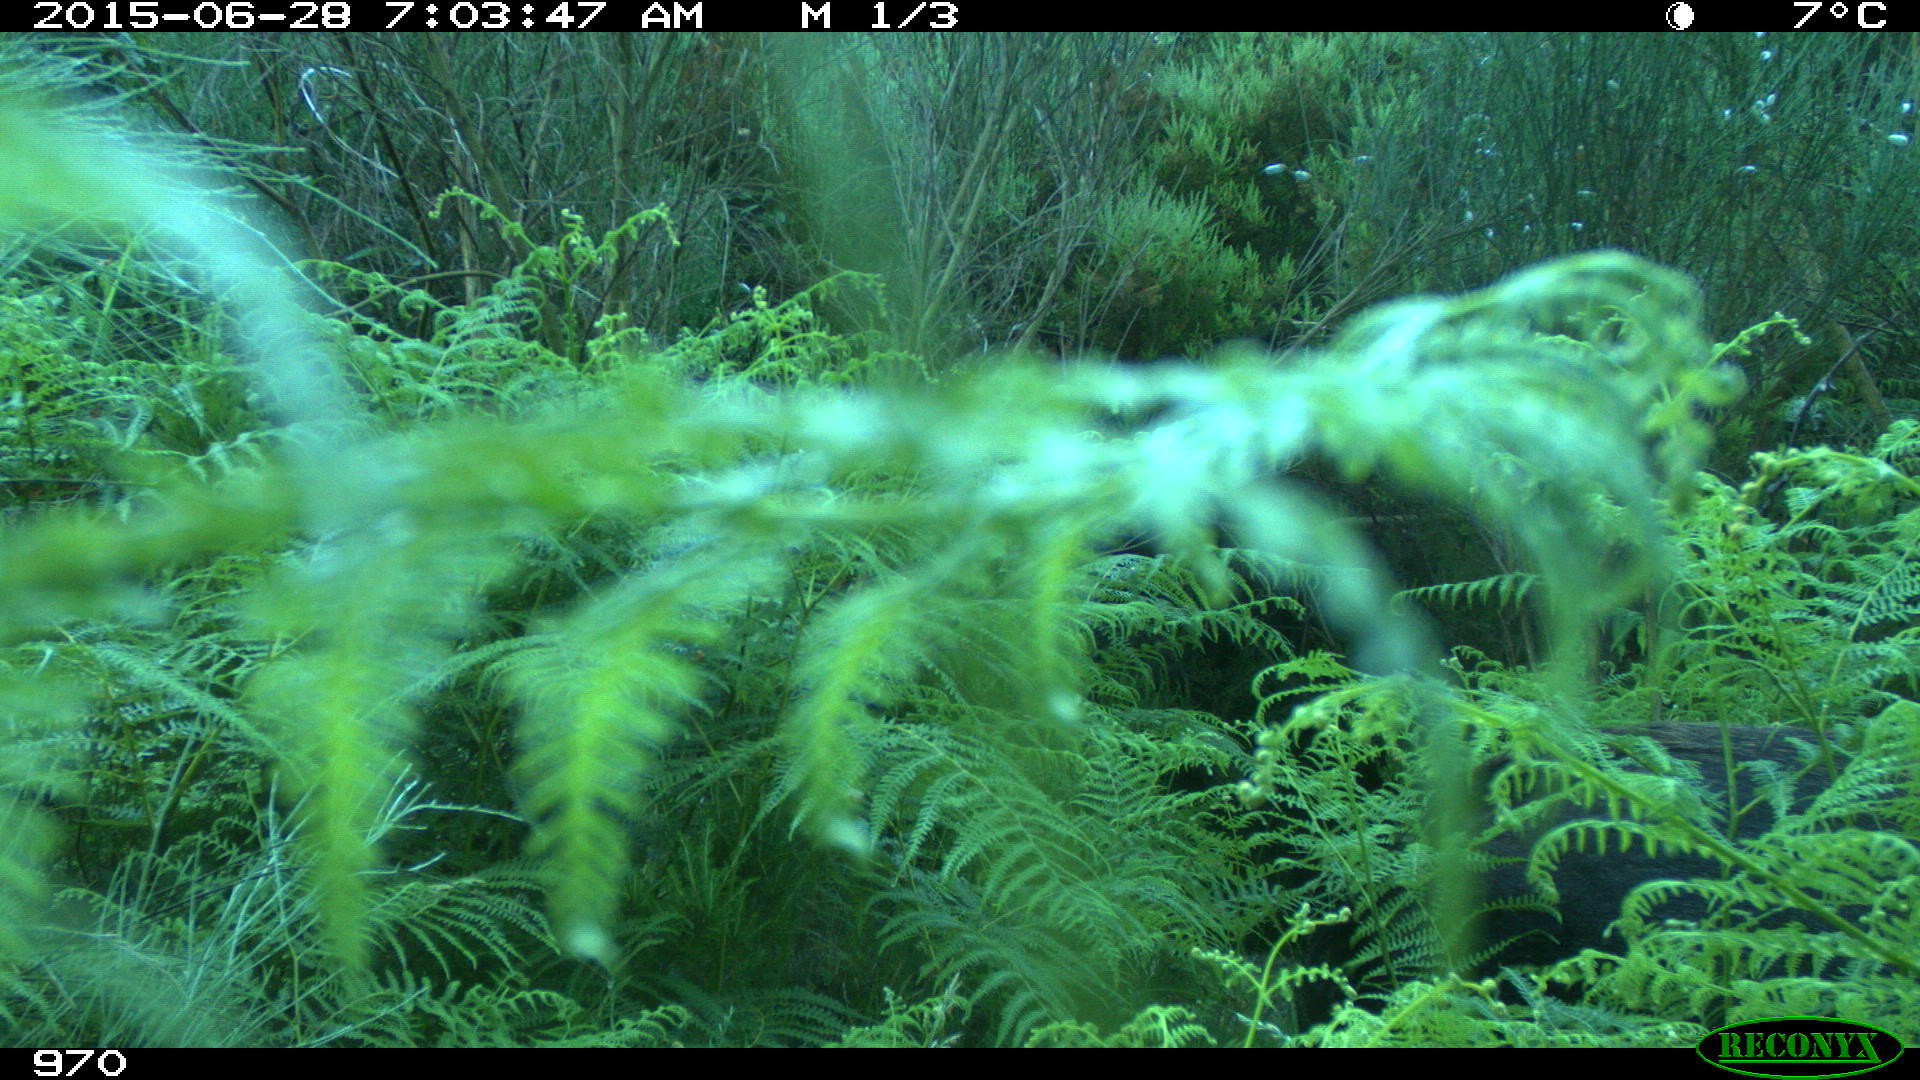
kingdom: Animalia
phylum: Chordata
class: Mammalia
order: Artiodactyla
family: Suidae
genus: Sus
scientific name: Sus scrofa
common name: Wild boar
